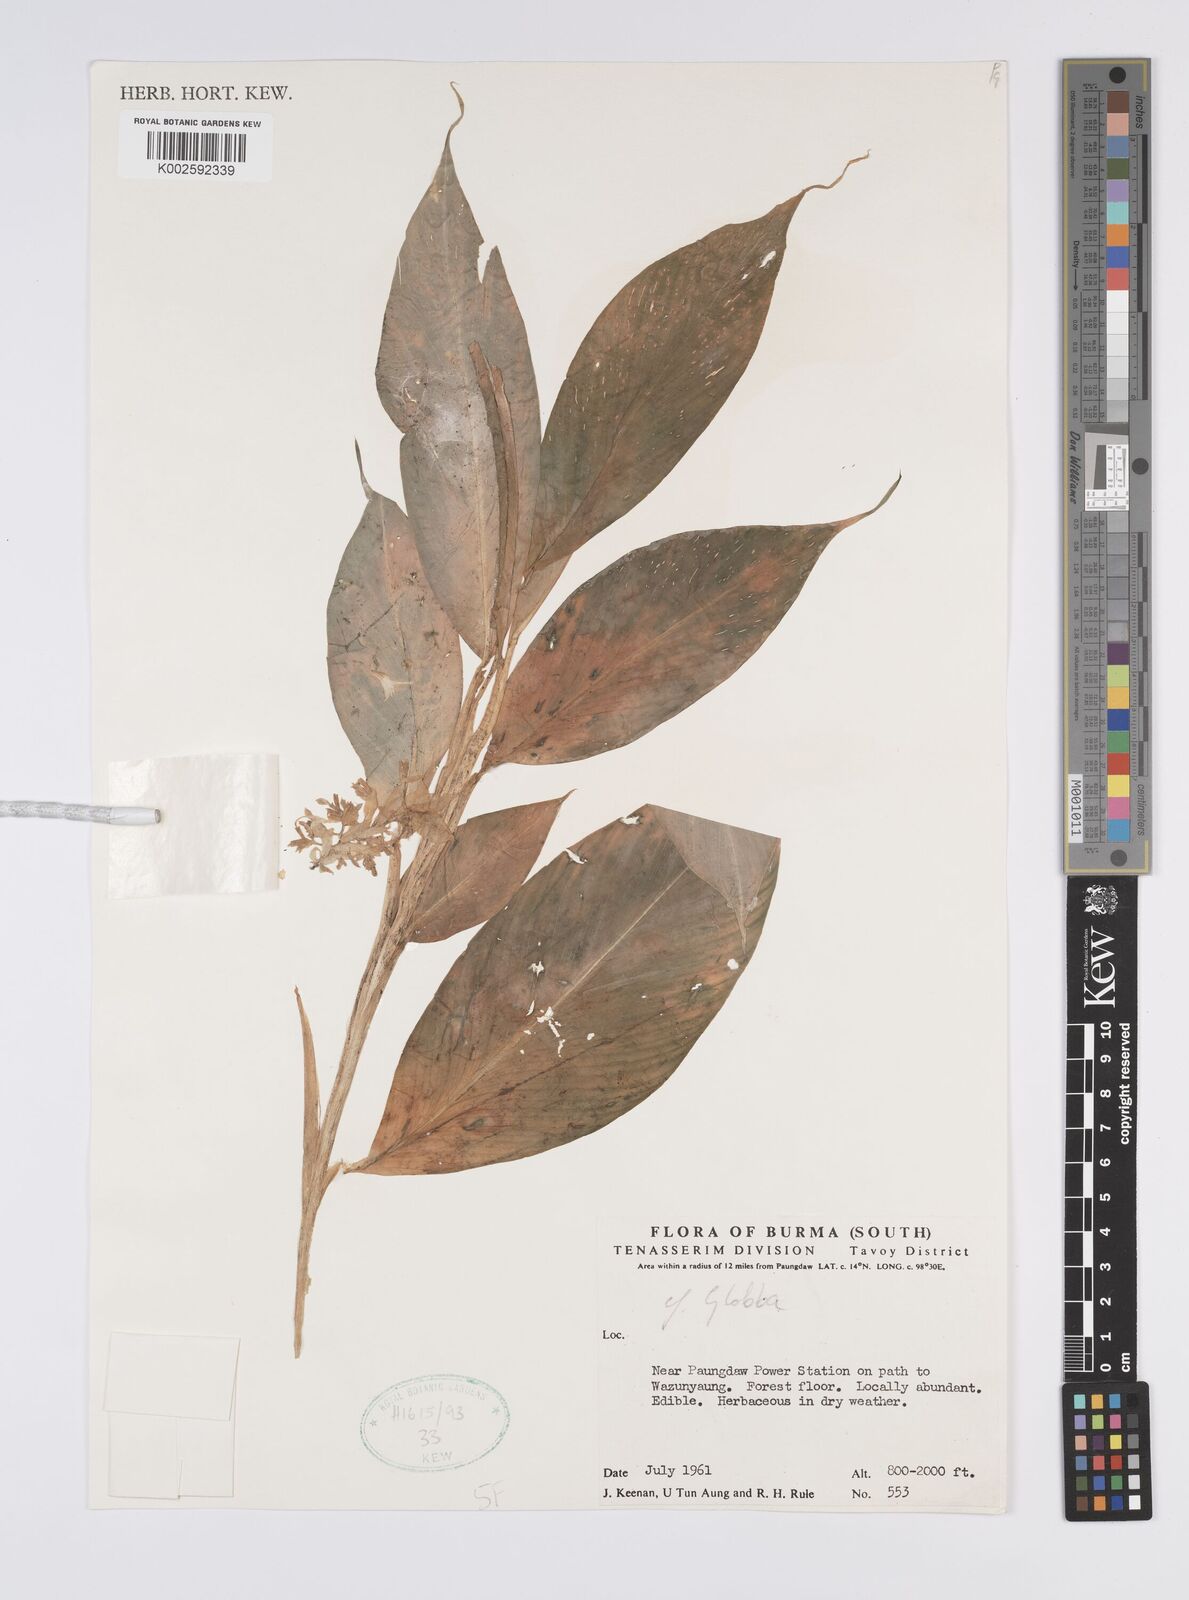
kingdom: Plantae
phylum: Tracheophyta
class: Liliopsida
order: Zingiberales
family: Zingiberaceae
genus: Globba
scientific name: Globba
